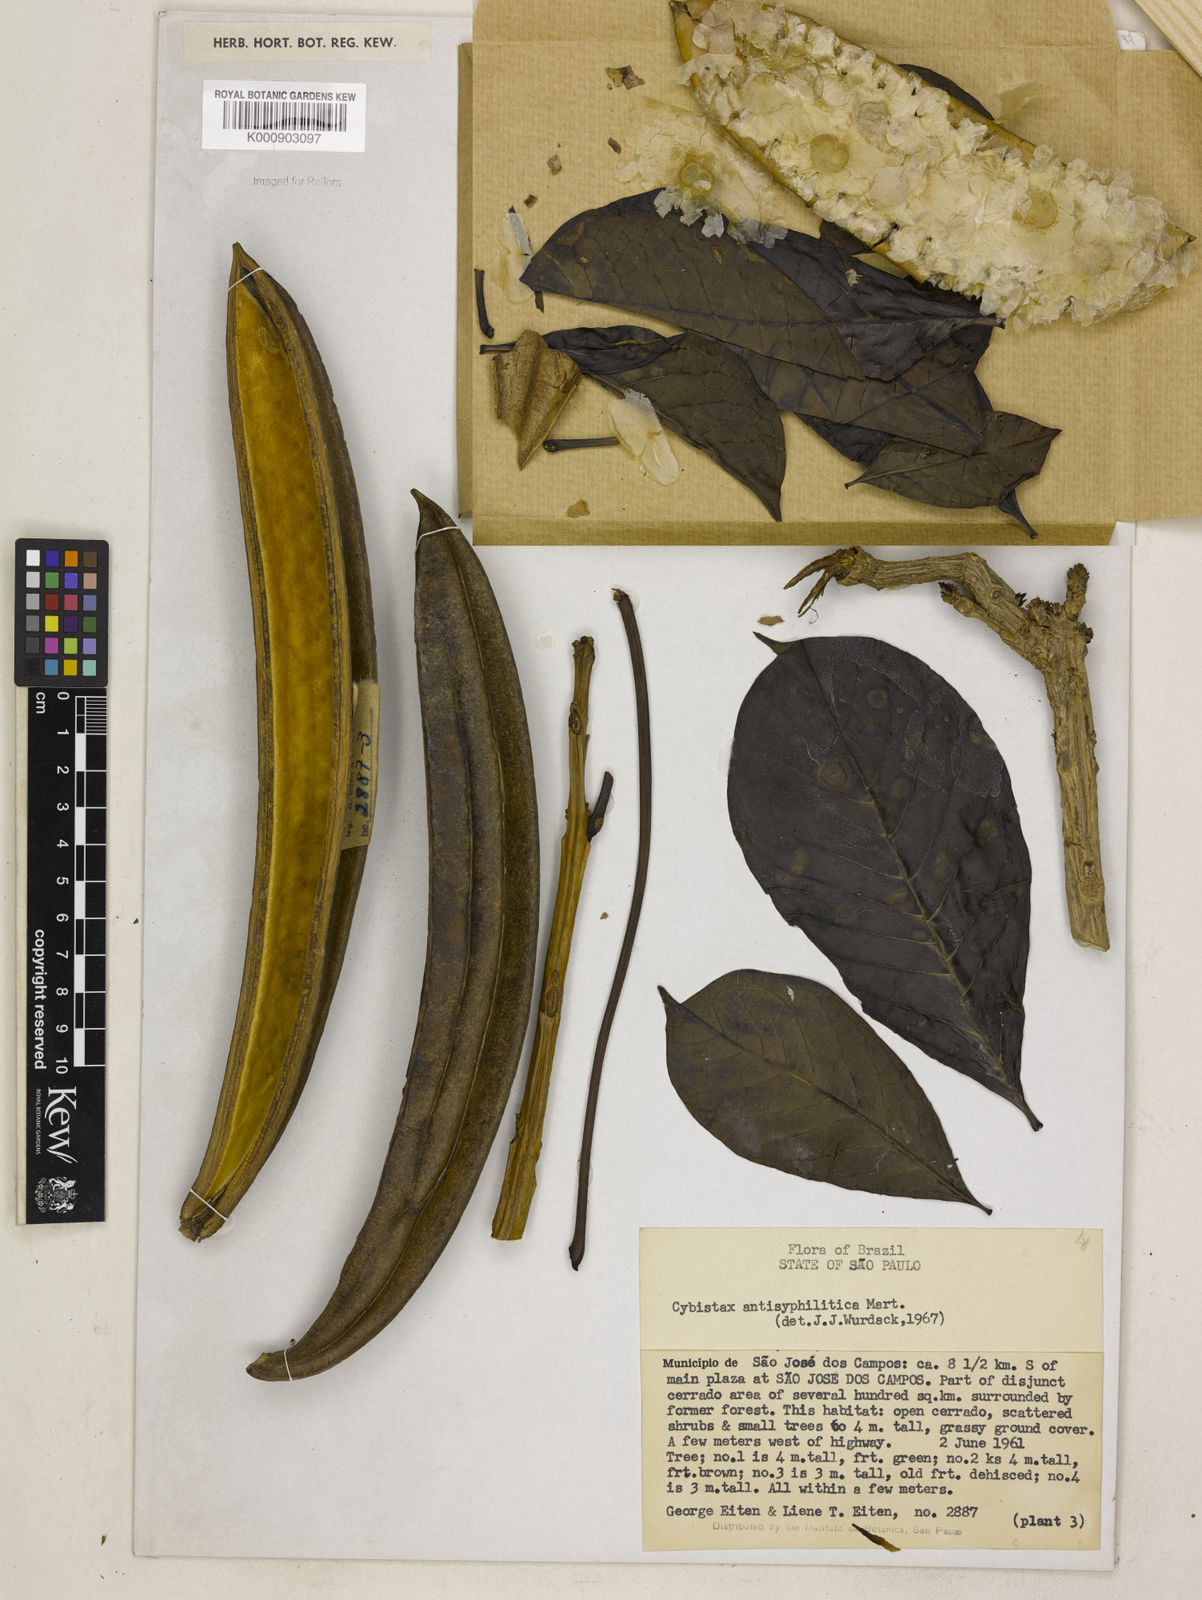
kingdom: Plantae
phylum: Tracheophyta
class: Magnoliopsida
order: Lamiales
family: Bignoniaceae
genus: Cybistax
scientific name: Cybistax antisyphilitica
